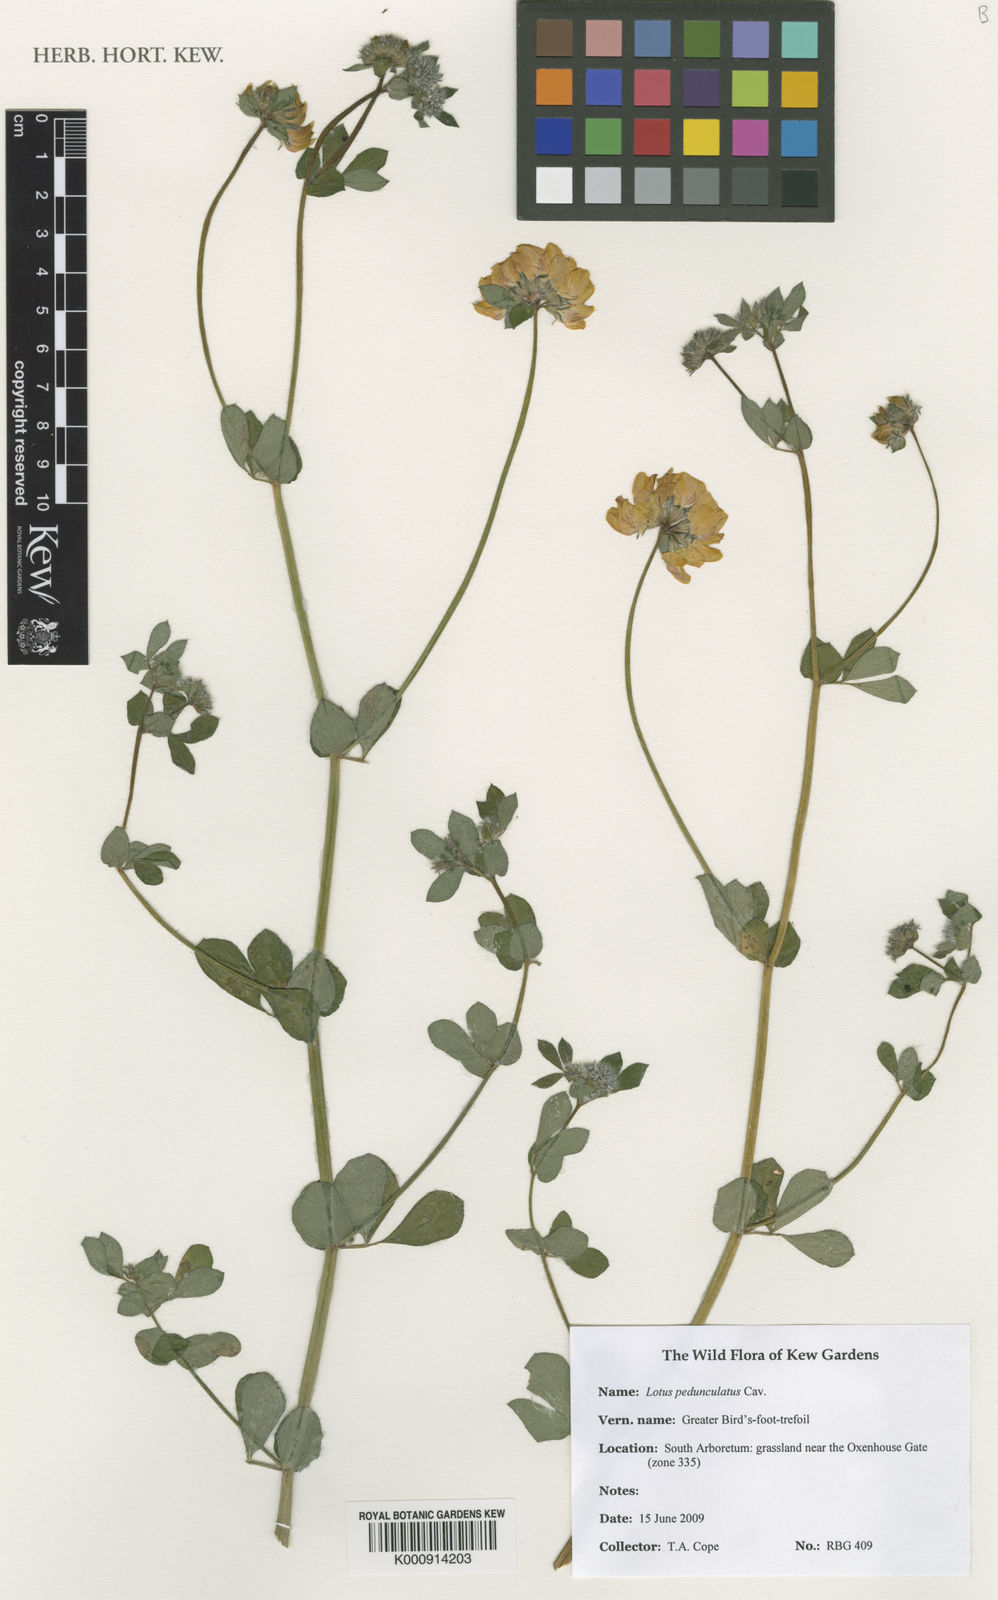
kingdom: Plantae
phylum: Tracheophyta
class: Magnoliopsida
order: Fabales
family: Fabaceae
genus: Lotus
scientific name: Lotus pedunculatus
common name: Greater birdsfoot-trefoil
